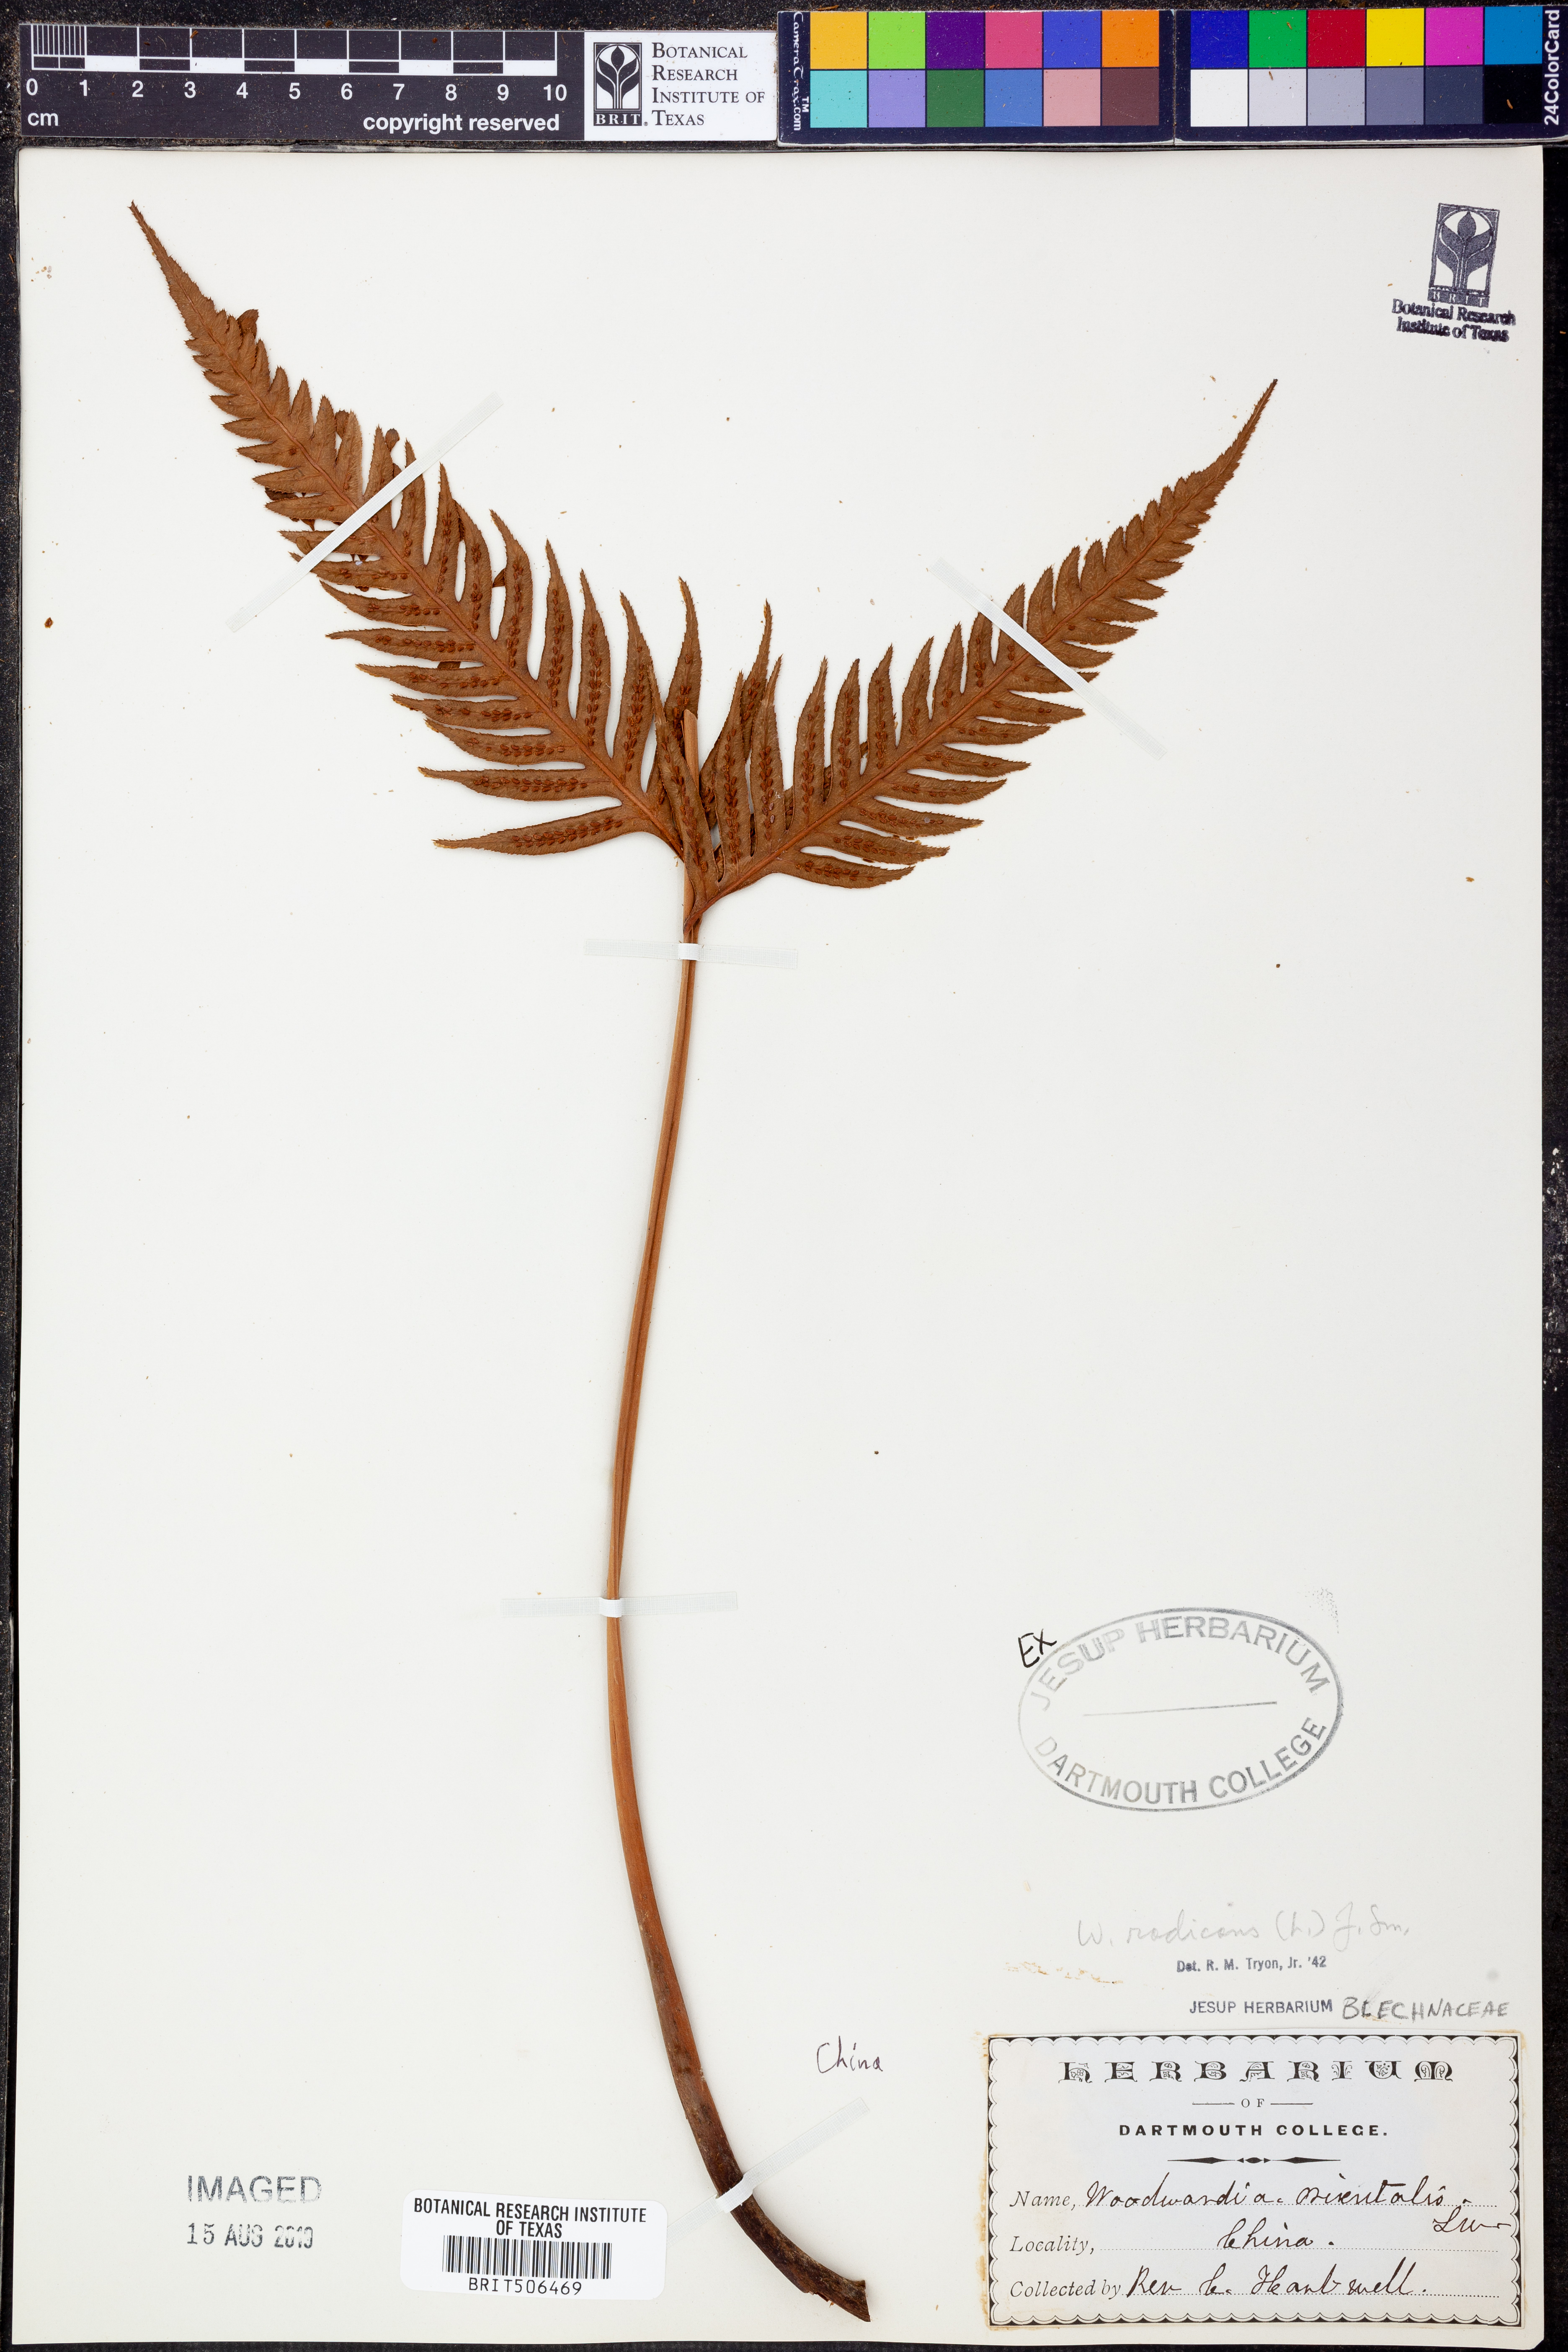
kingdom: Plantae
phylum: Tracheophyta
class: Polypodiopsida
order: Polypodiales
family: Blechnaceae
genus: Woodwardia
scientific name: Woodwardia radicans
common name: Rooting chainfern
